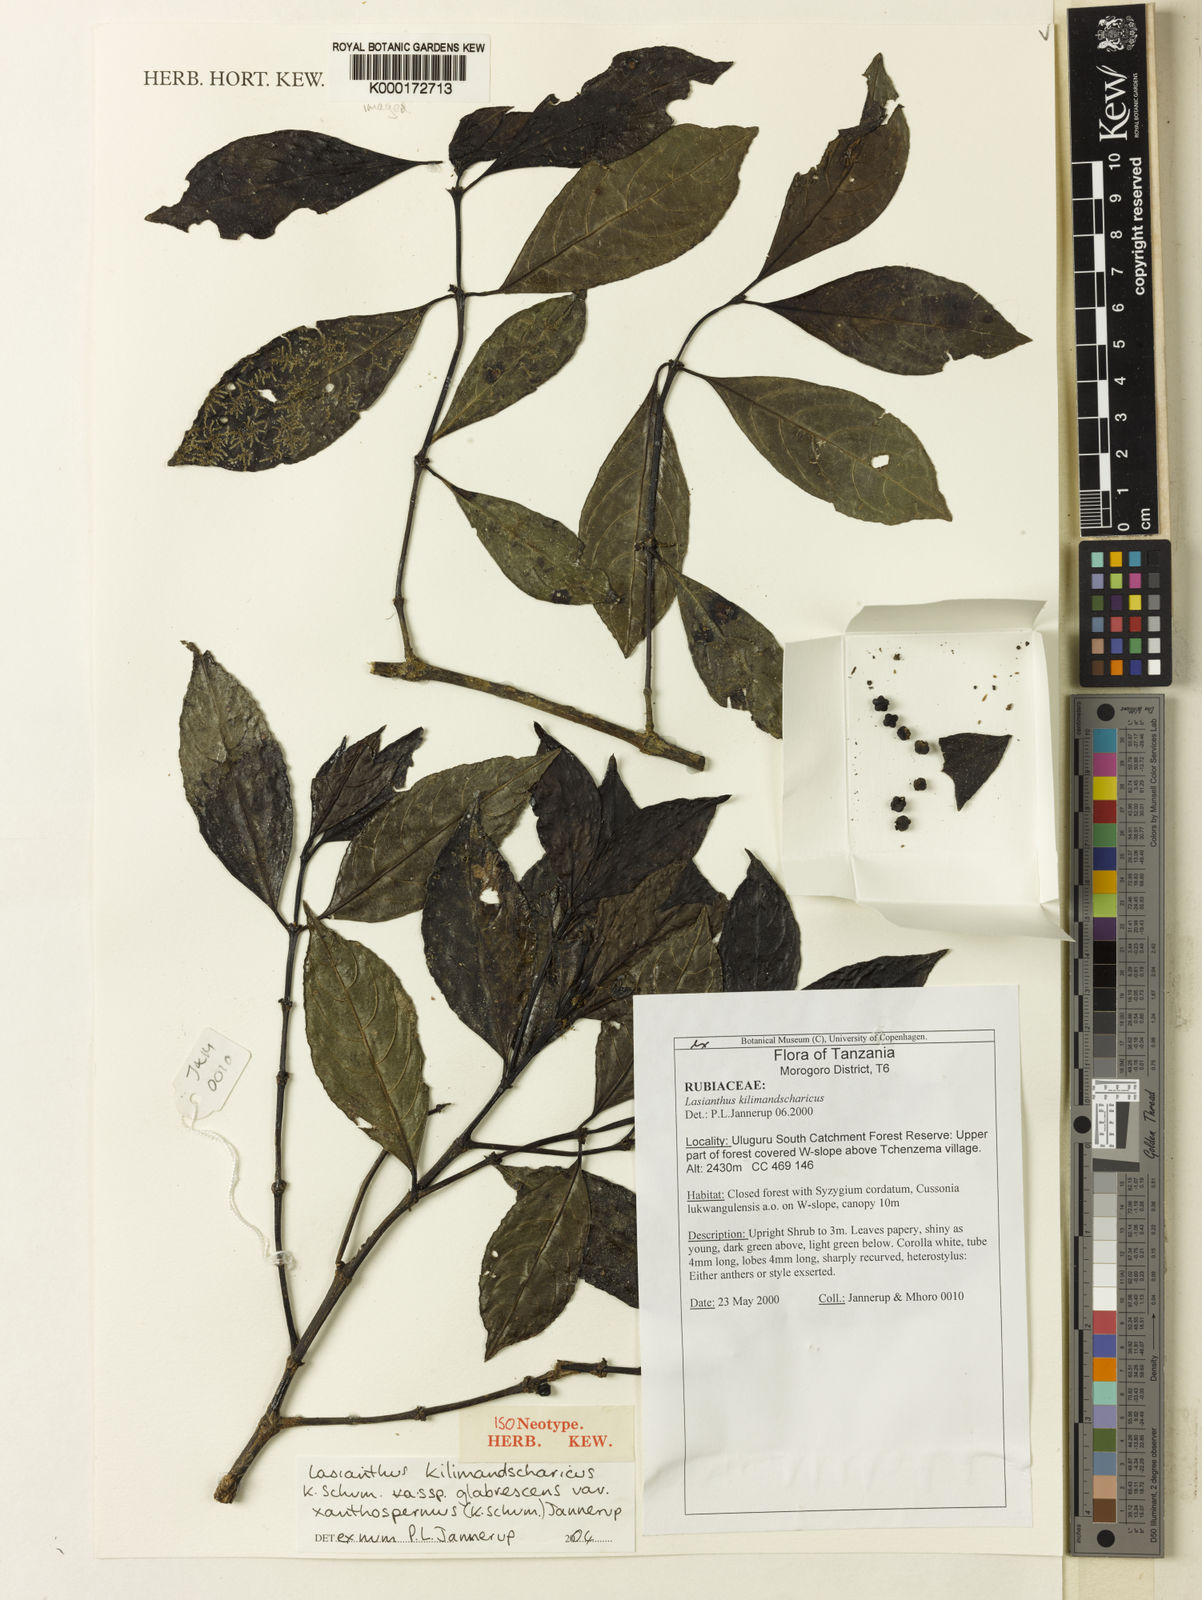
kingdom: Plantae
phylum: Tracheophyta
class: Magnoliopsida
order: Gentianales
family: Rubiaceae
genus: Lasianthus
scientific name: Lasianthus kilimandscharicus
